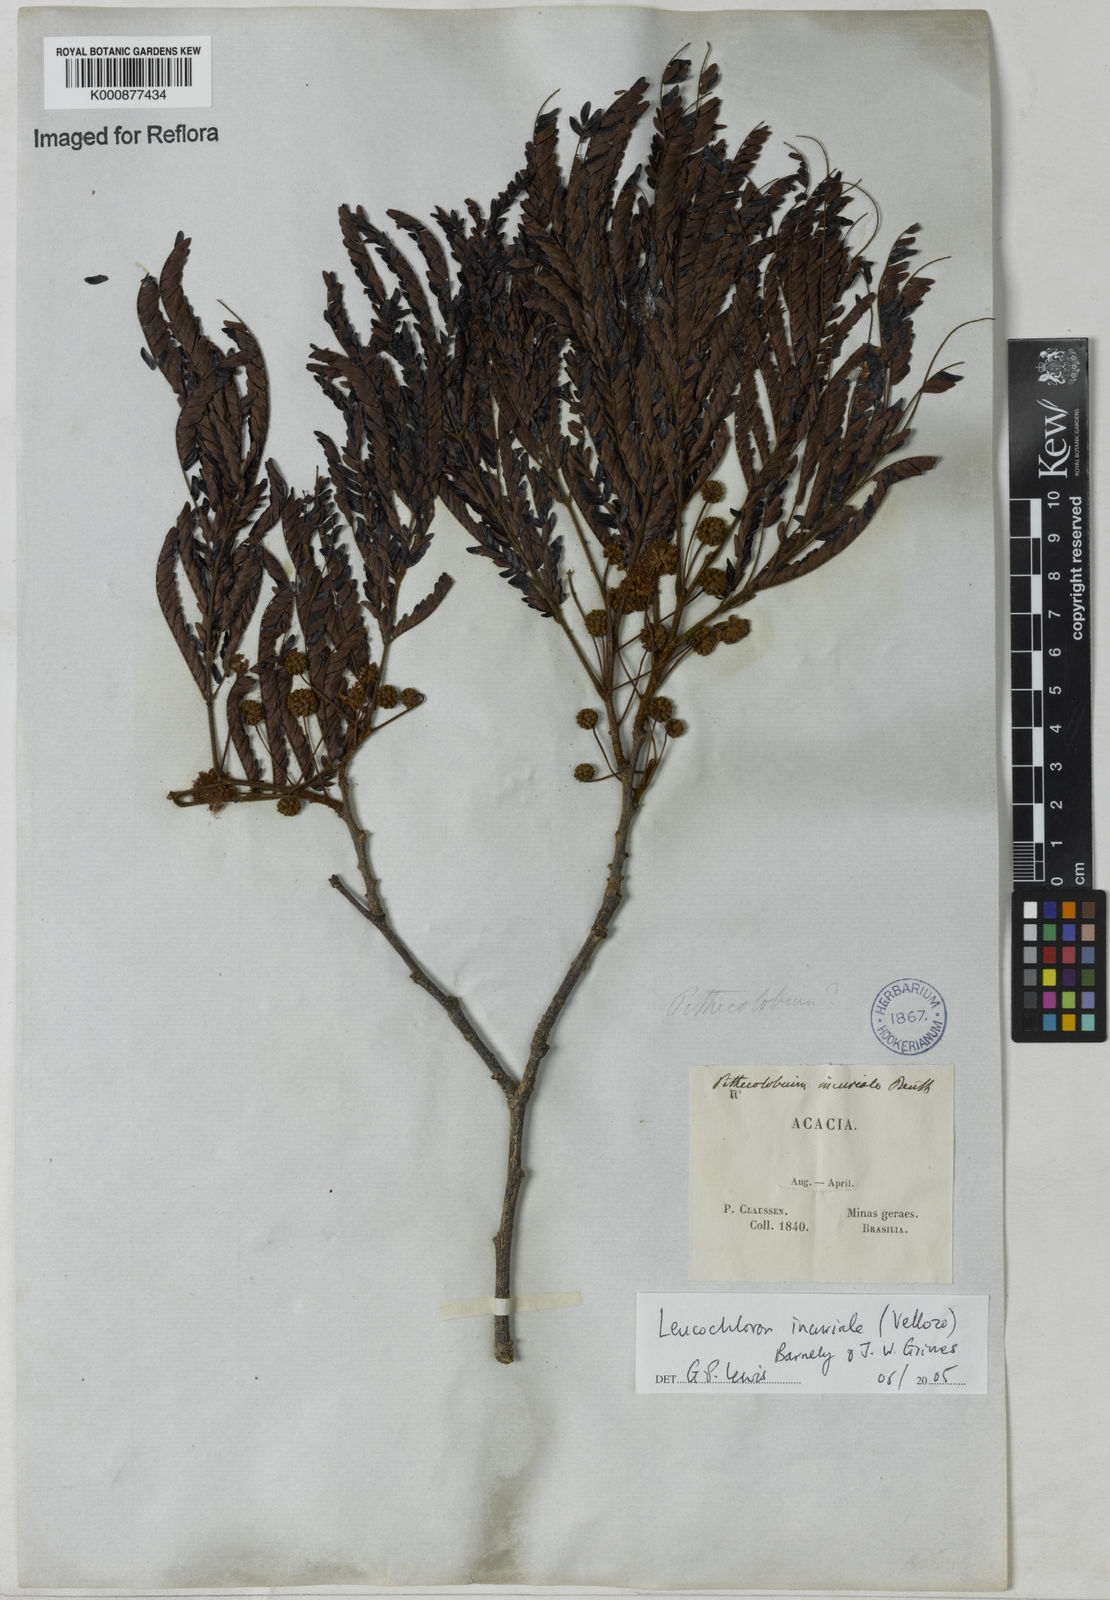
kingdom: Plantae
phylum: Tracheophyta
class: Magnoliopsida
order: Fabales
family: Fabaceae
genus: Leucochloron
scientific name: Leucochloron incuriale
